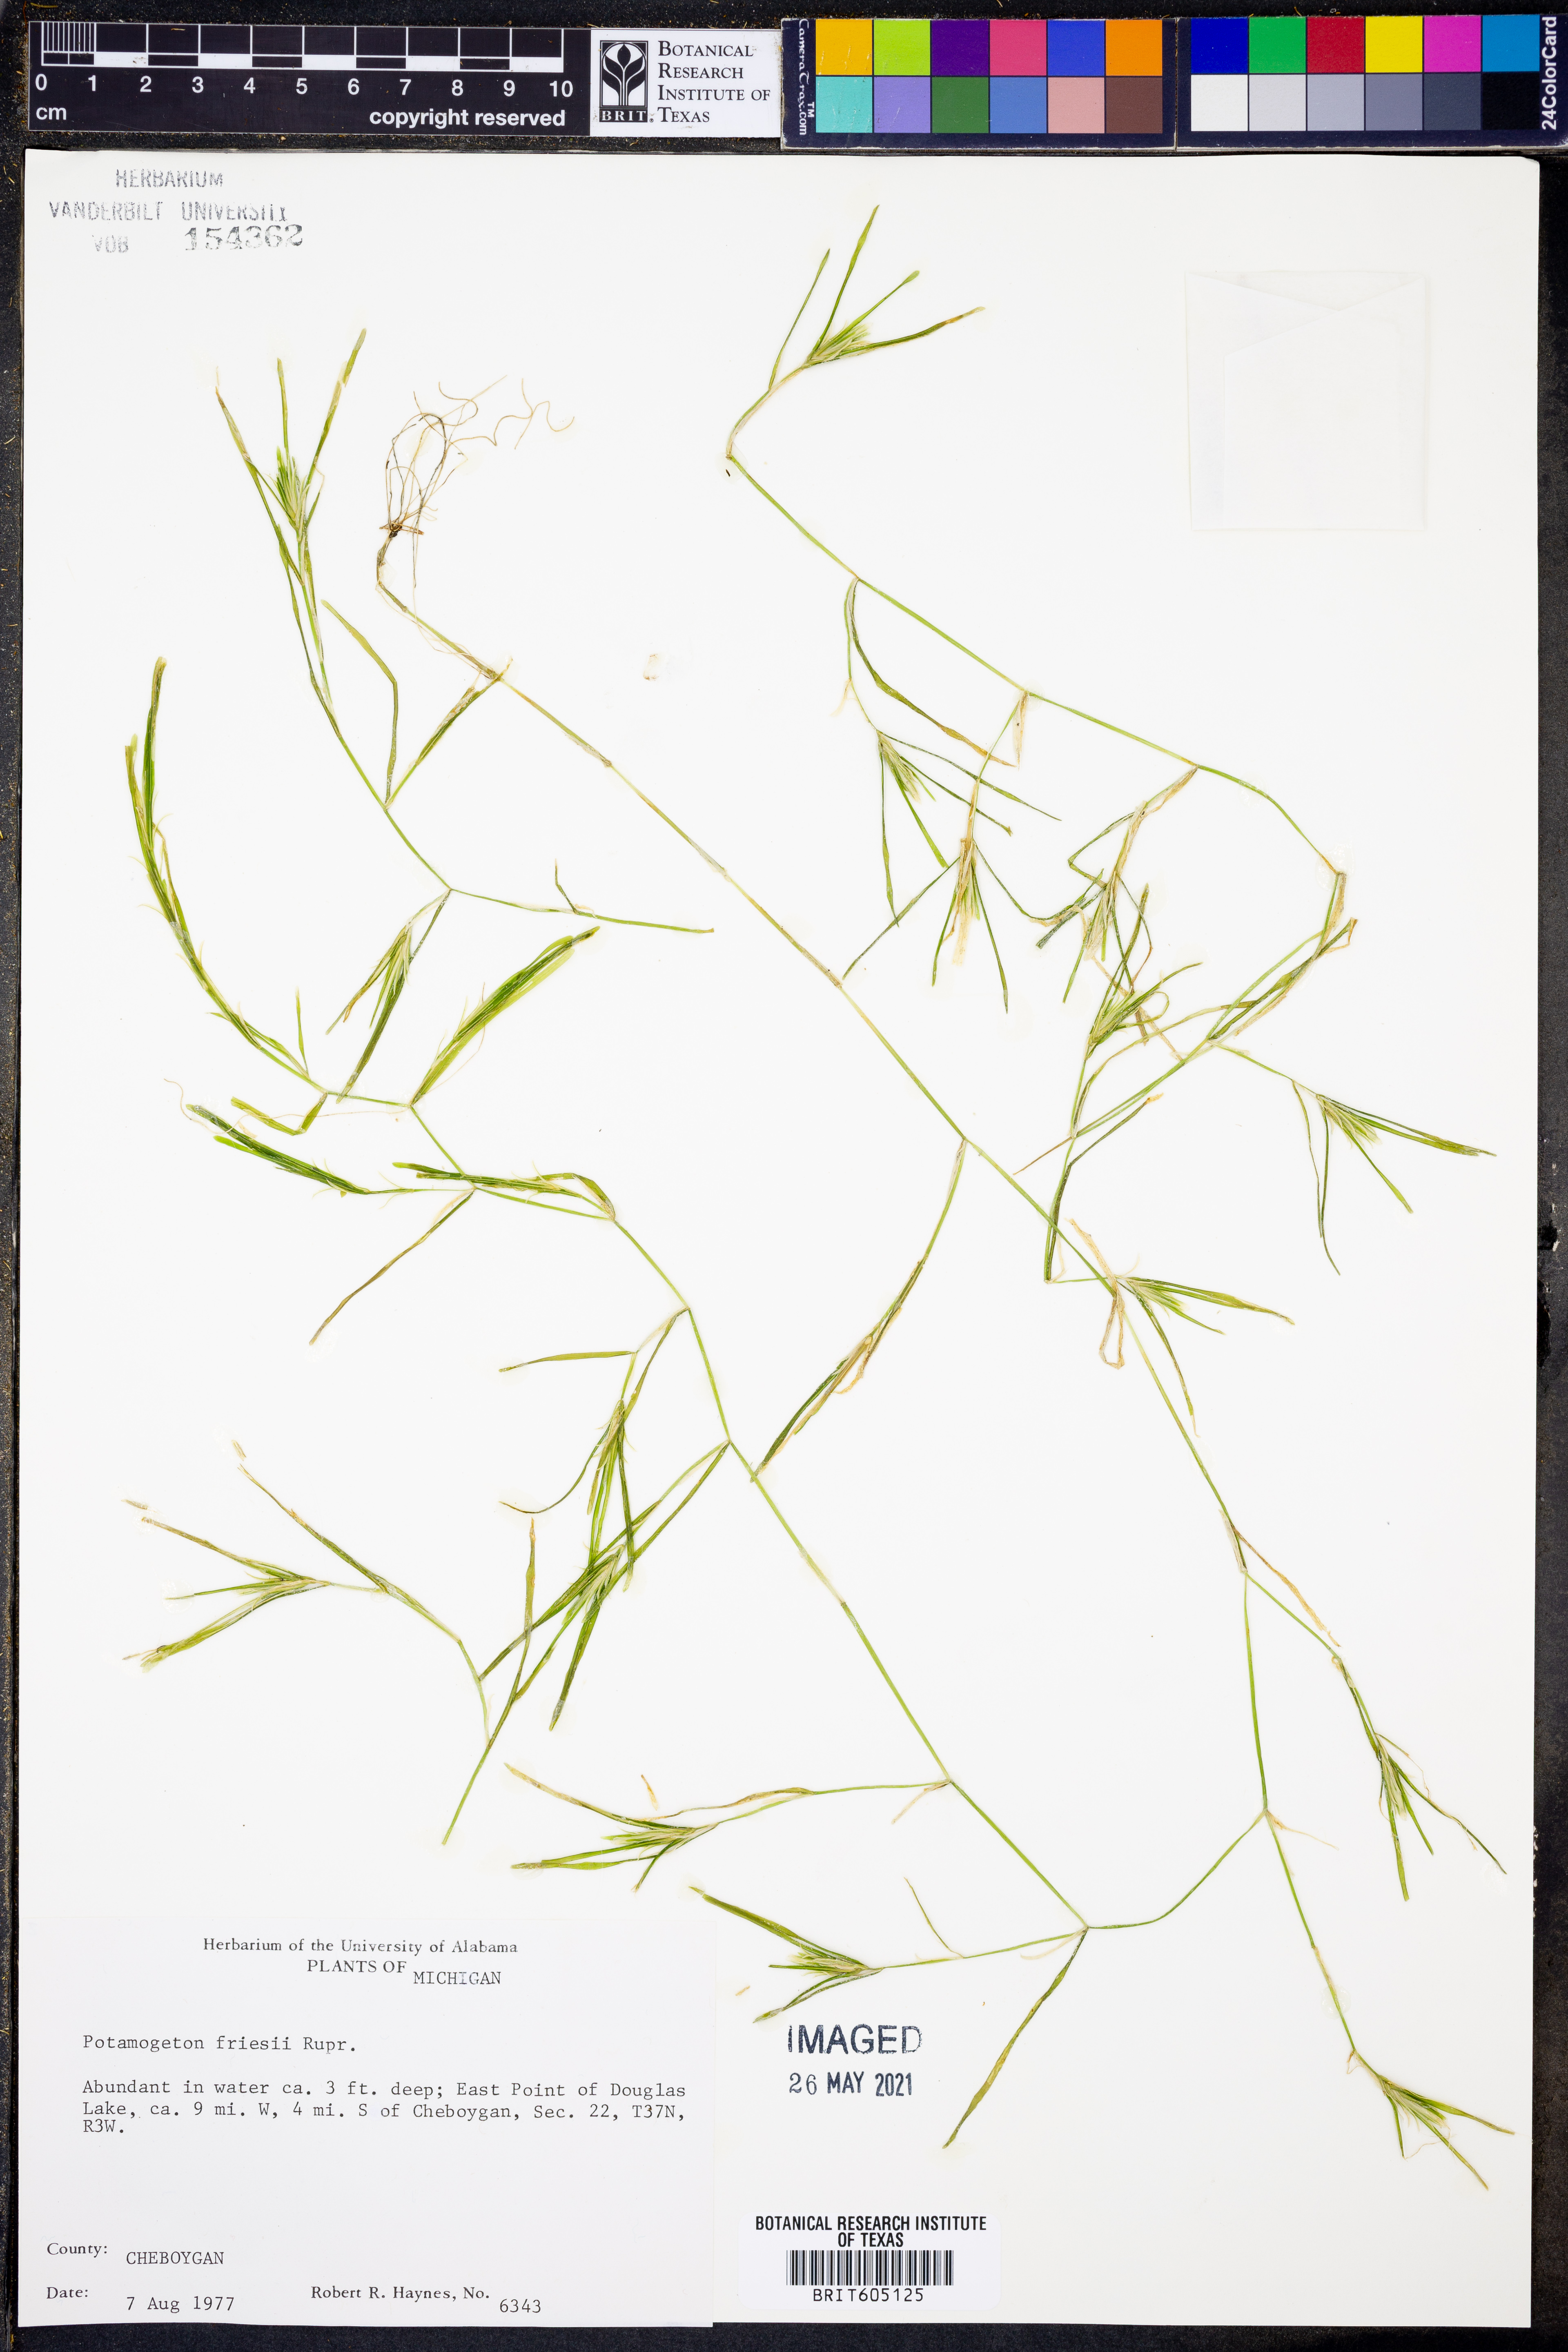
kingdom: Plantae
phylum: Tracheophyta
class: Liliopsida
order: Alismatales
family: Potamogetonaceae
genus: Potamogeton
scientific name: Potamogeton friesii
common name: Flat-stalked pondweed
